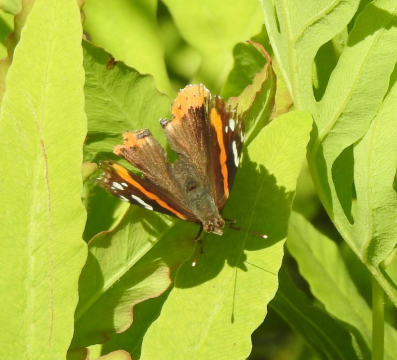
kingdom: Animalia
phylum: Arthropoda
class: Insecta
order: Lepidoptera
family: Nymphalidae
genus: Vanessa
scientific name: Vanessa atalanta
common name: Red Admiral
